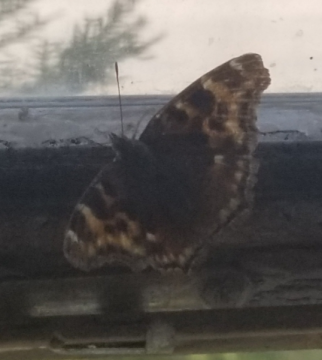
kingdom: Animalia
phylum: Arthropoda
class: Insecta
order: Lepidoptera
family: Nymphalidae
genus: Polygonia
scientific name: Polygonia vaualbum
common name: Compton Tortoiseshell
